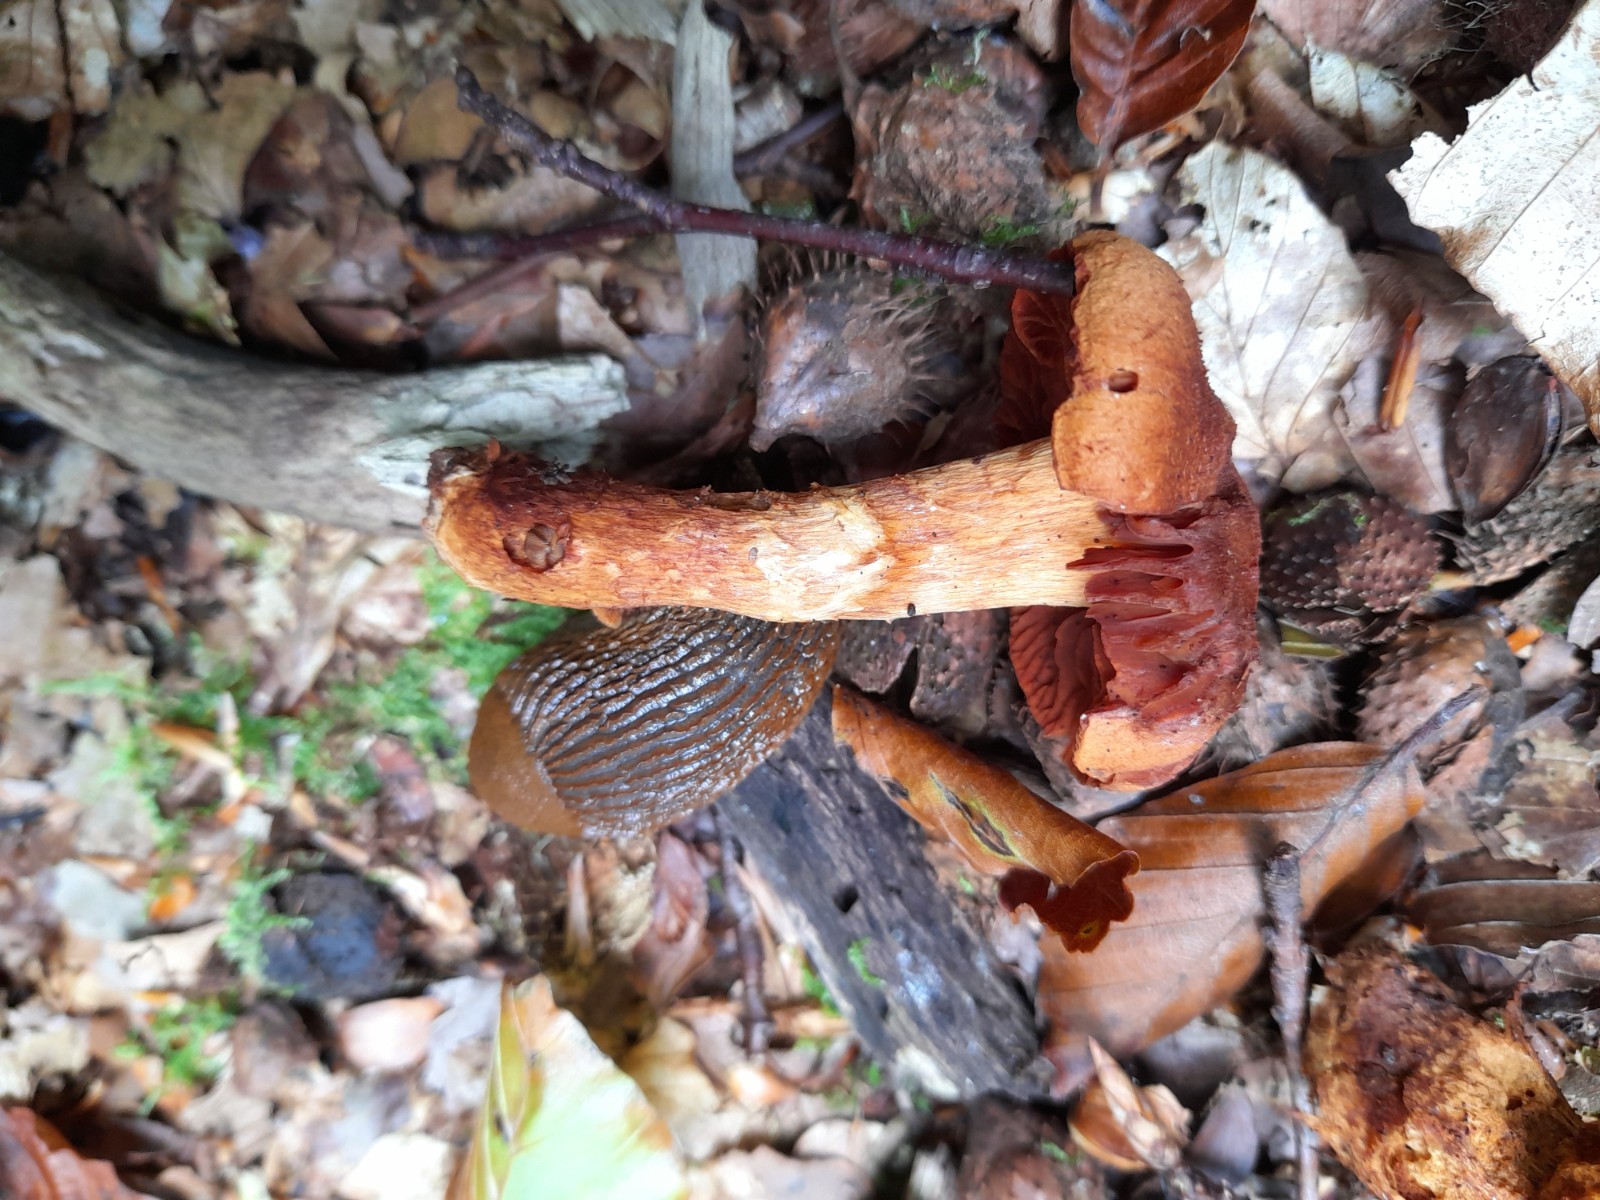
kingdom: Fungi
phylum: Basidiomycota
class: Agaricomycetes
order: Agaricales
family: Cortinariaceae
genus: Cortinarius
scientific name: Cortinarius rubellus
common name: puklet gift-slørhat
